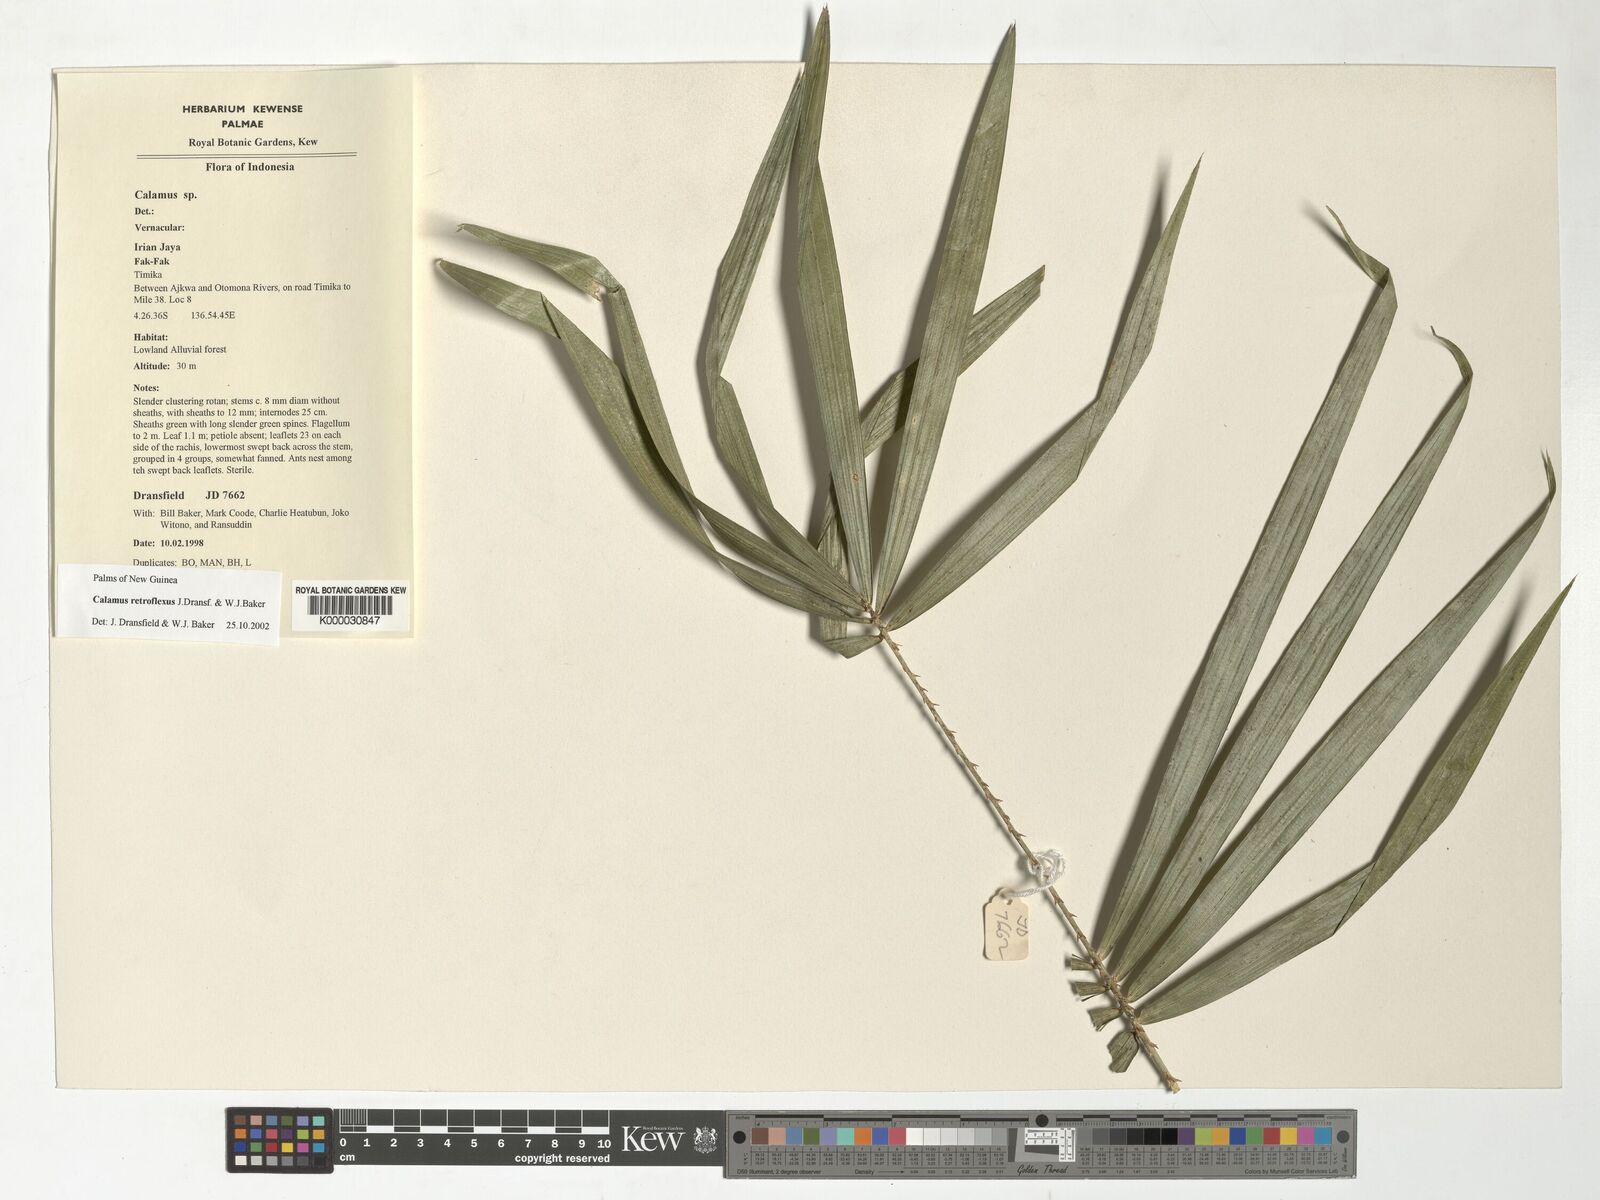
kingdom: Plantae
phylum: Tracheophyta
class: Liliopsida
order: Arecales
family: Arecaceae
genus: Calamus
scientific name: Calamus retroflexus
